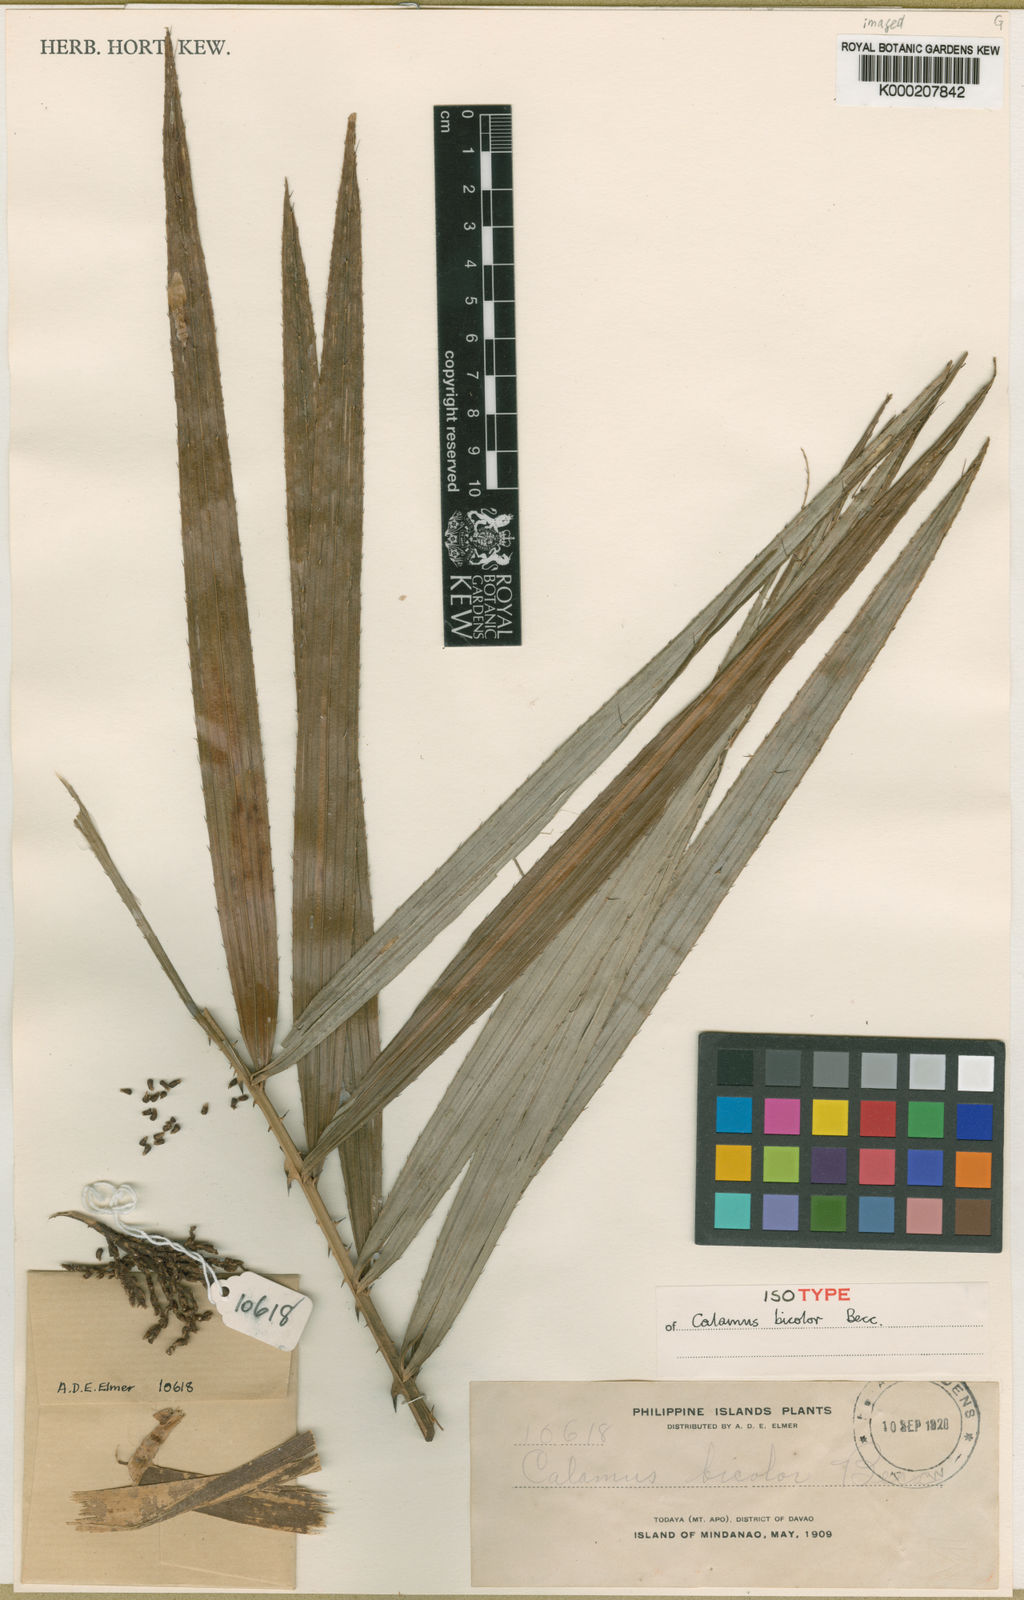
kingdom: Plantae
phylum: Tracheophyta
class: Liliopsida
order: Arecales
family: Arecaceae
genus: Calamus
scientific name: Calamus bicolor
